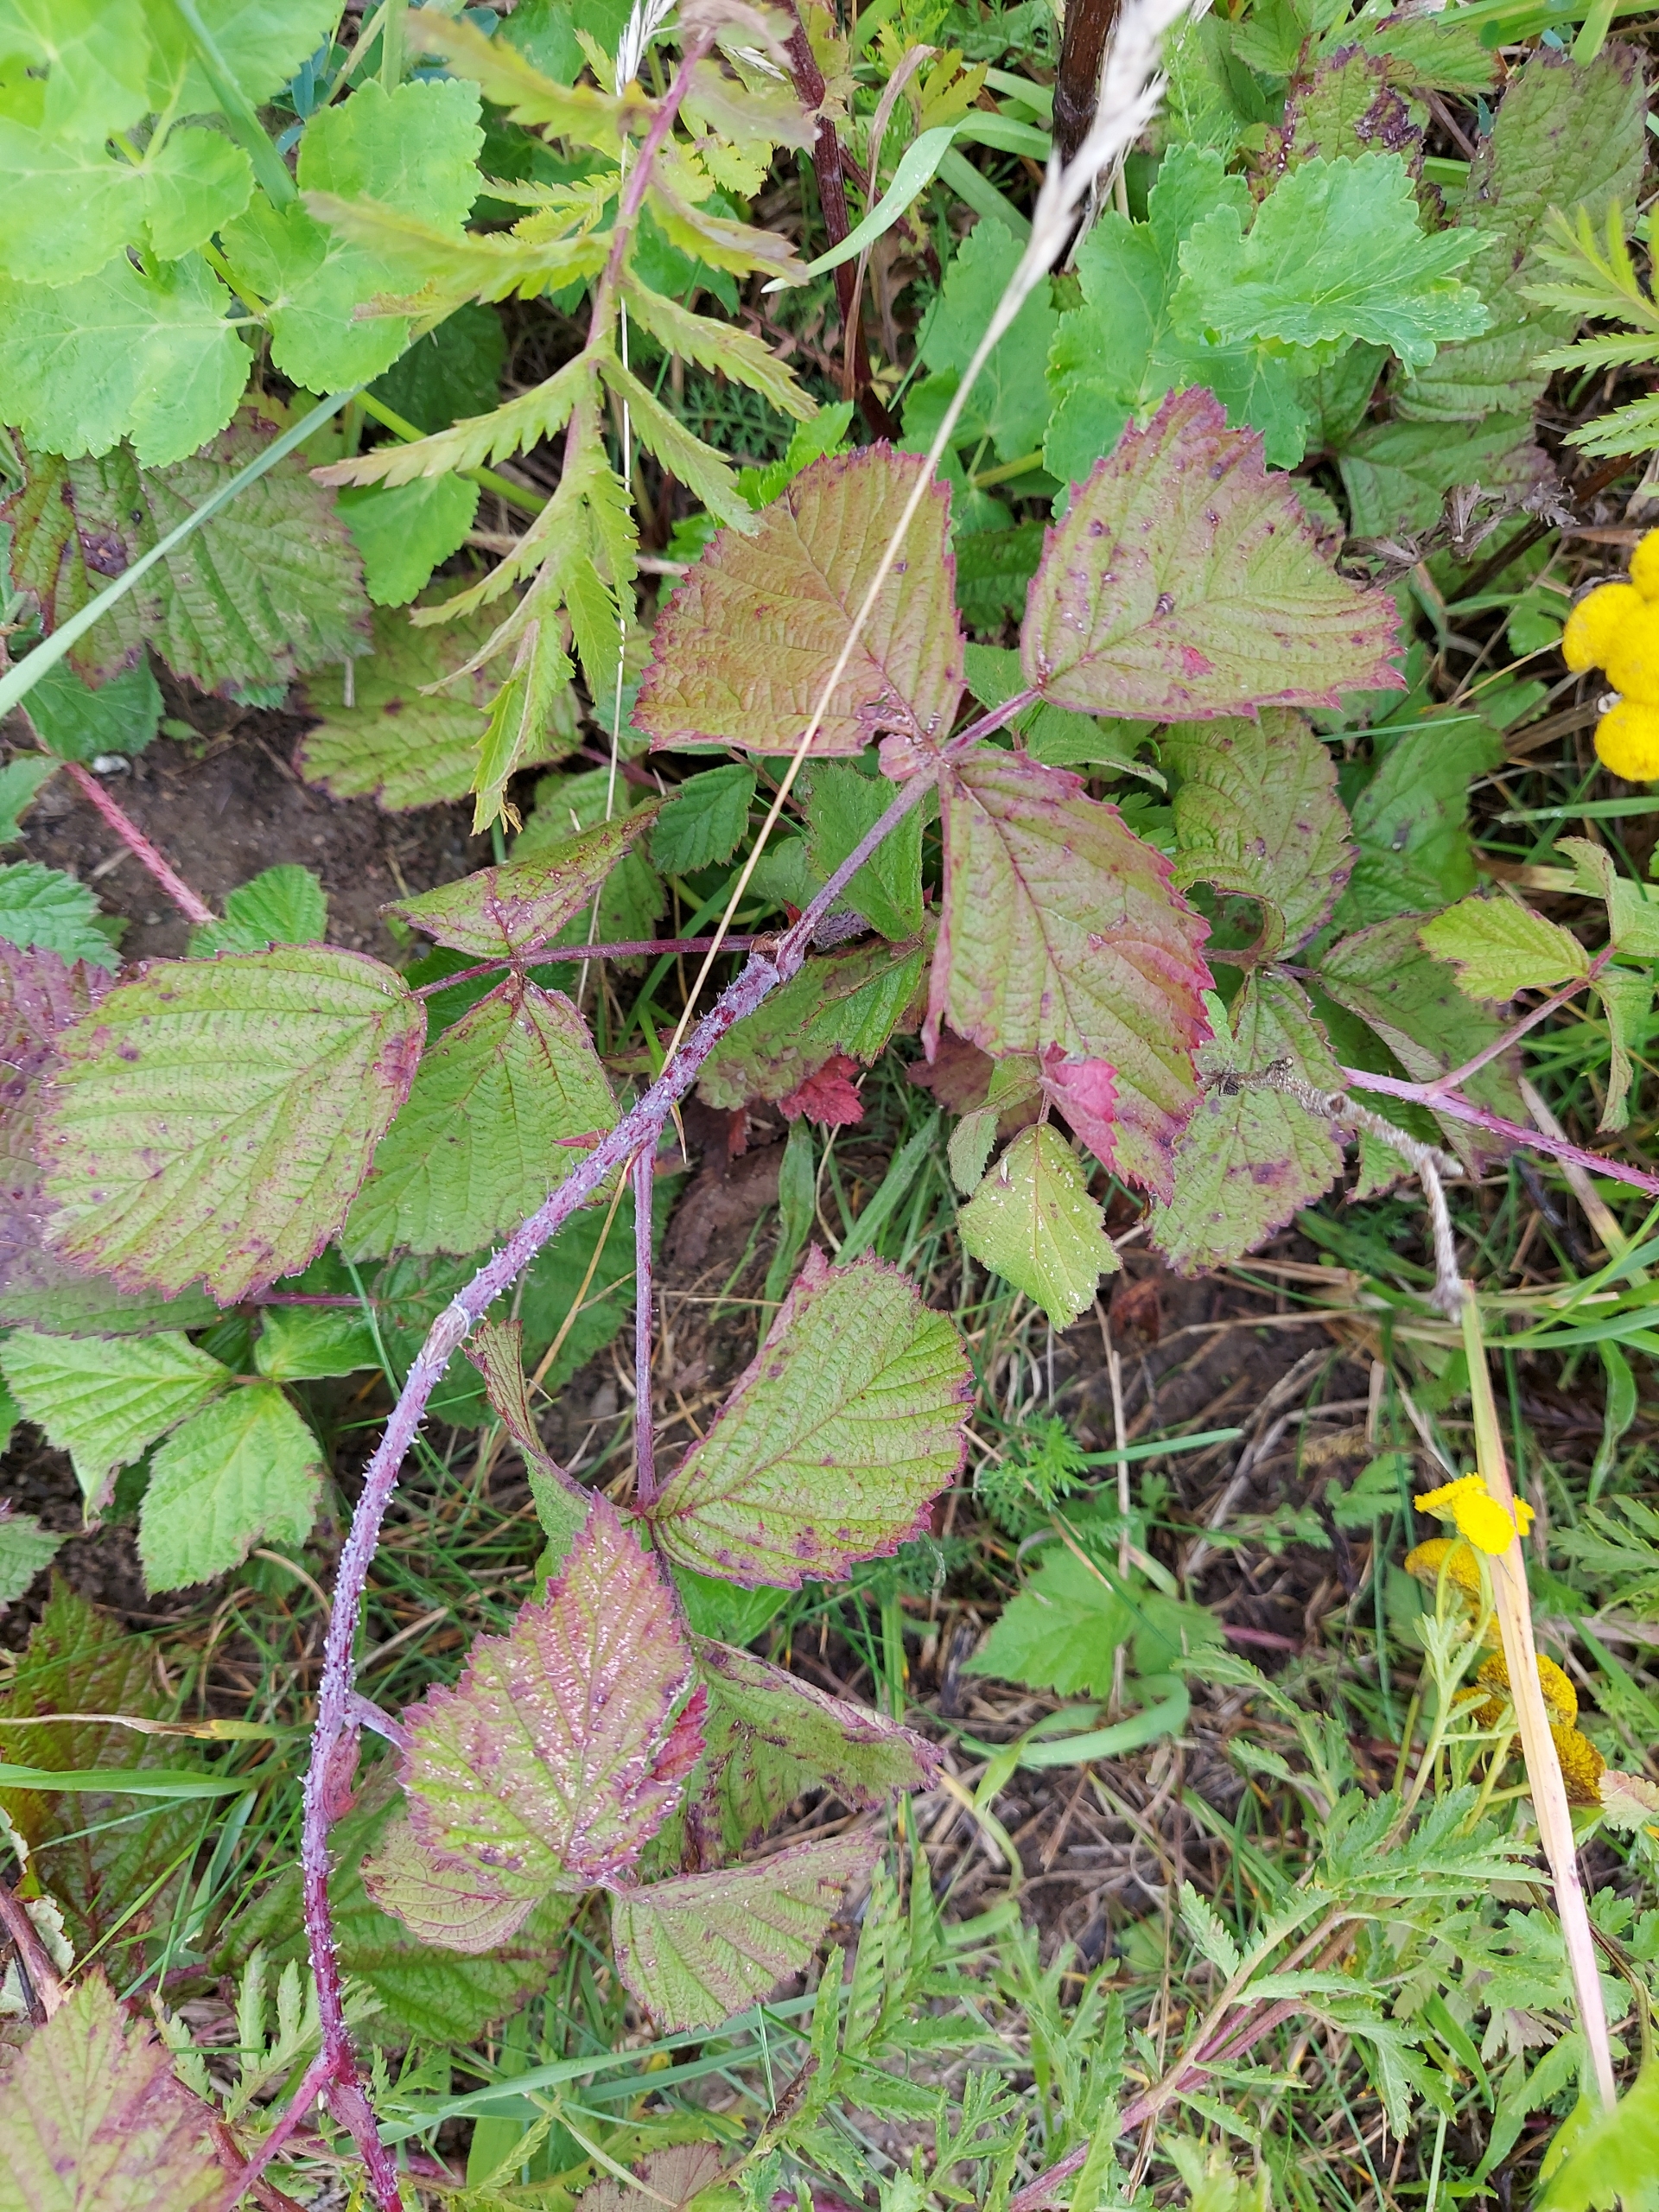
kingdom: Plantae
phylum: Tracheophyta
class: Magnoliopsida
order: Rosales
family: Rosaceae
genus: Rubus
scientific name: Rubus caesius
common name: Korbær
